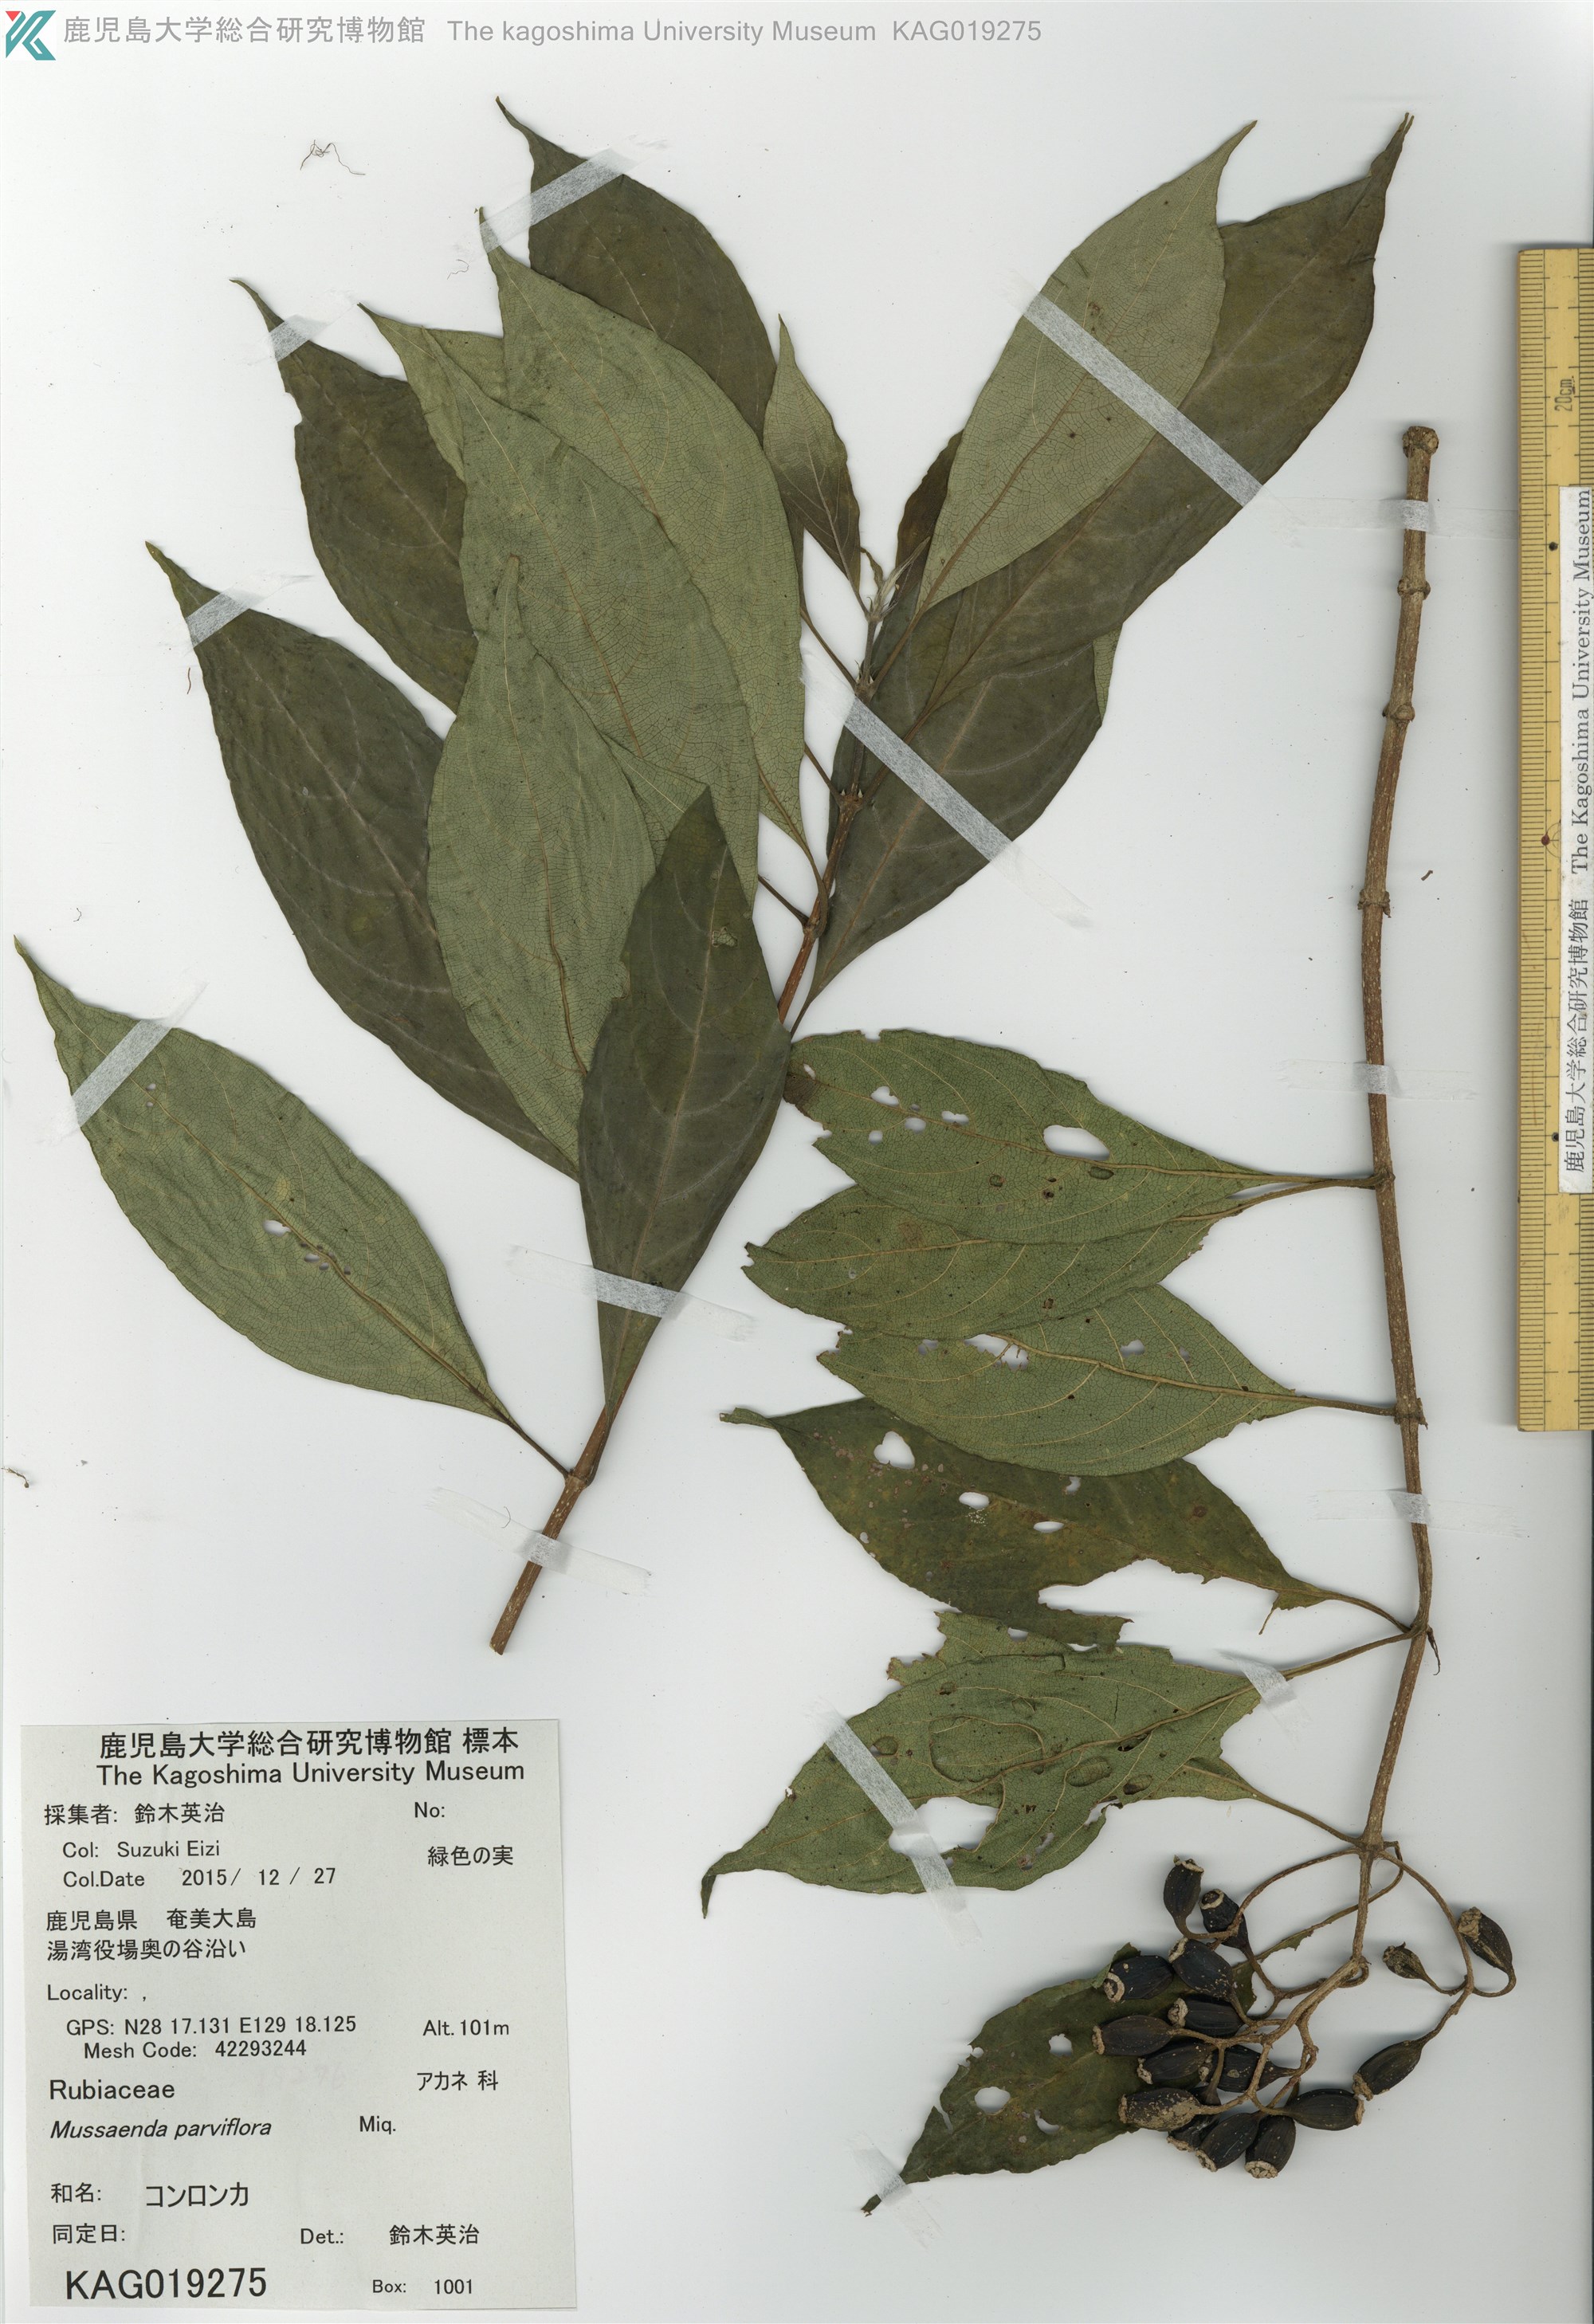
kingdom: Plantae
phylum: Tracheophyta
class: Magnoliopsida
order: Gentianales
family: Rubiaceae
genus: Mussaenda
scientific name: Mussaenda parviflora
